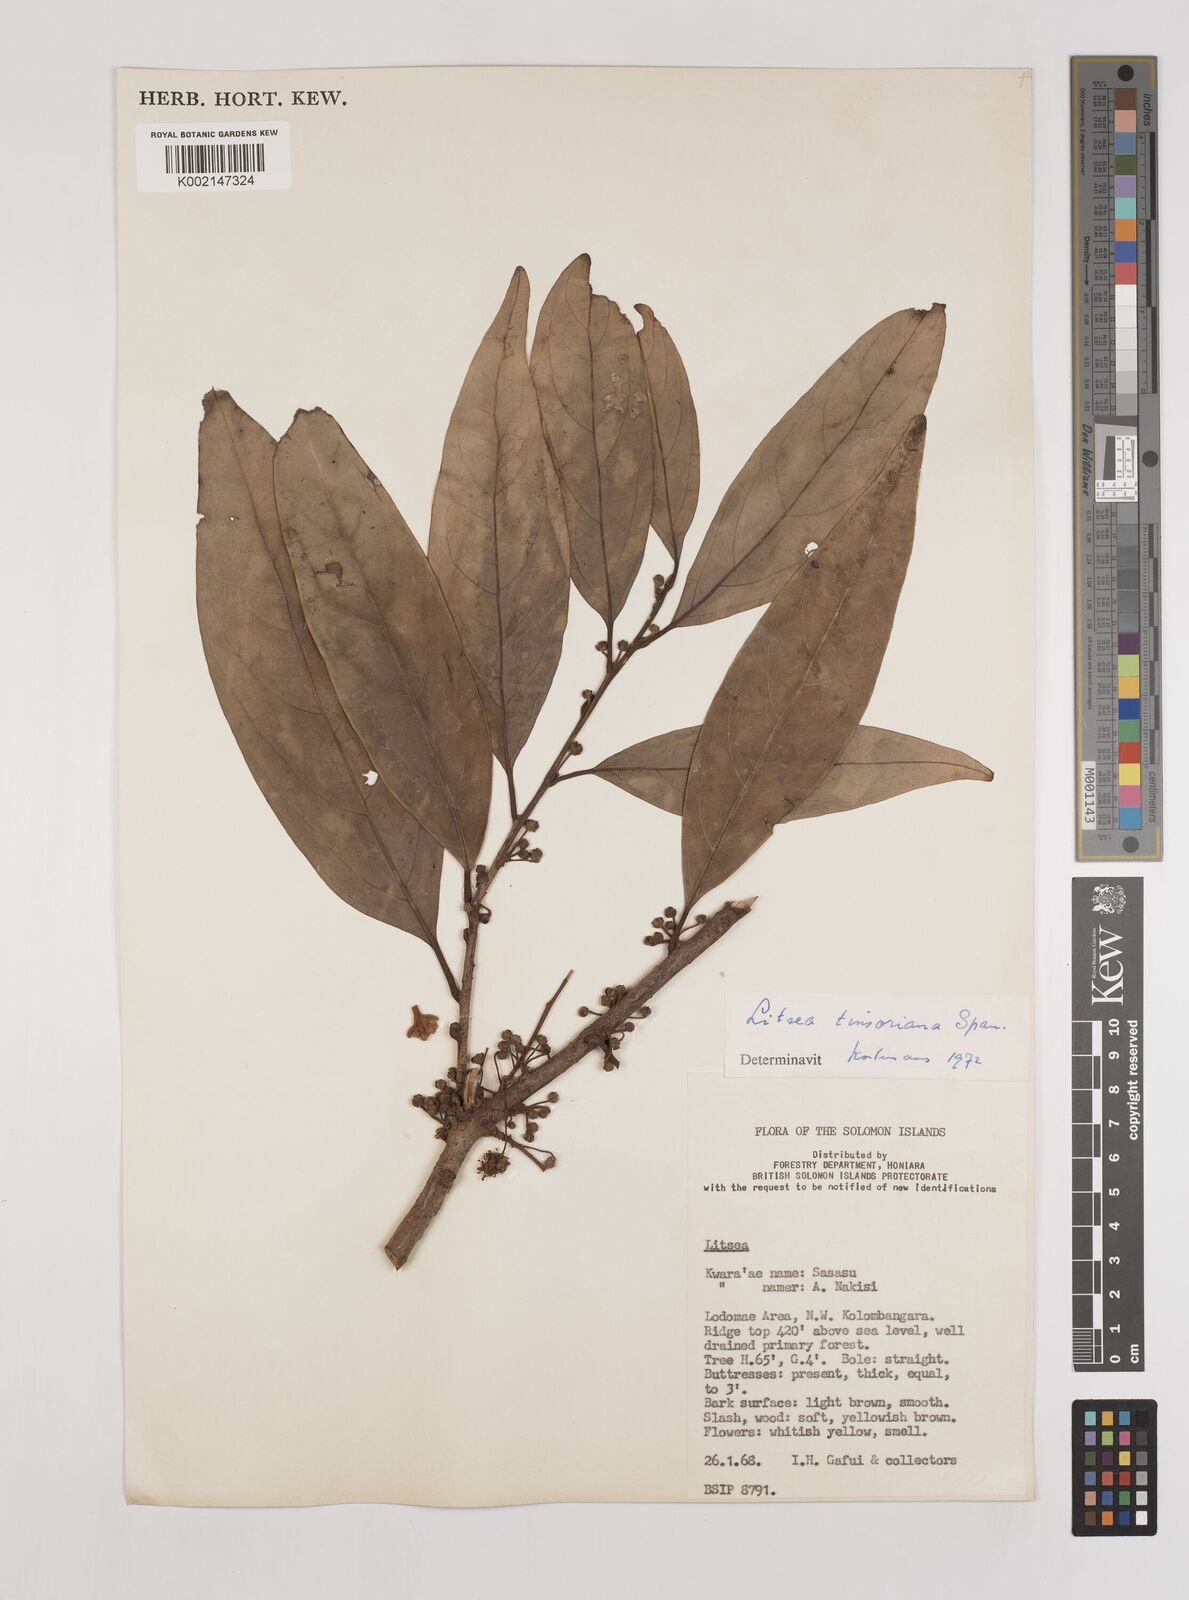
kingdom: Plantae
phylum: Tracheophyta
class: Magnoliopsida
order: Laurales
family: Lauraceae
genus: Litsea
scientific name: Litsea timoriana
